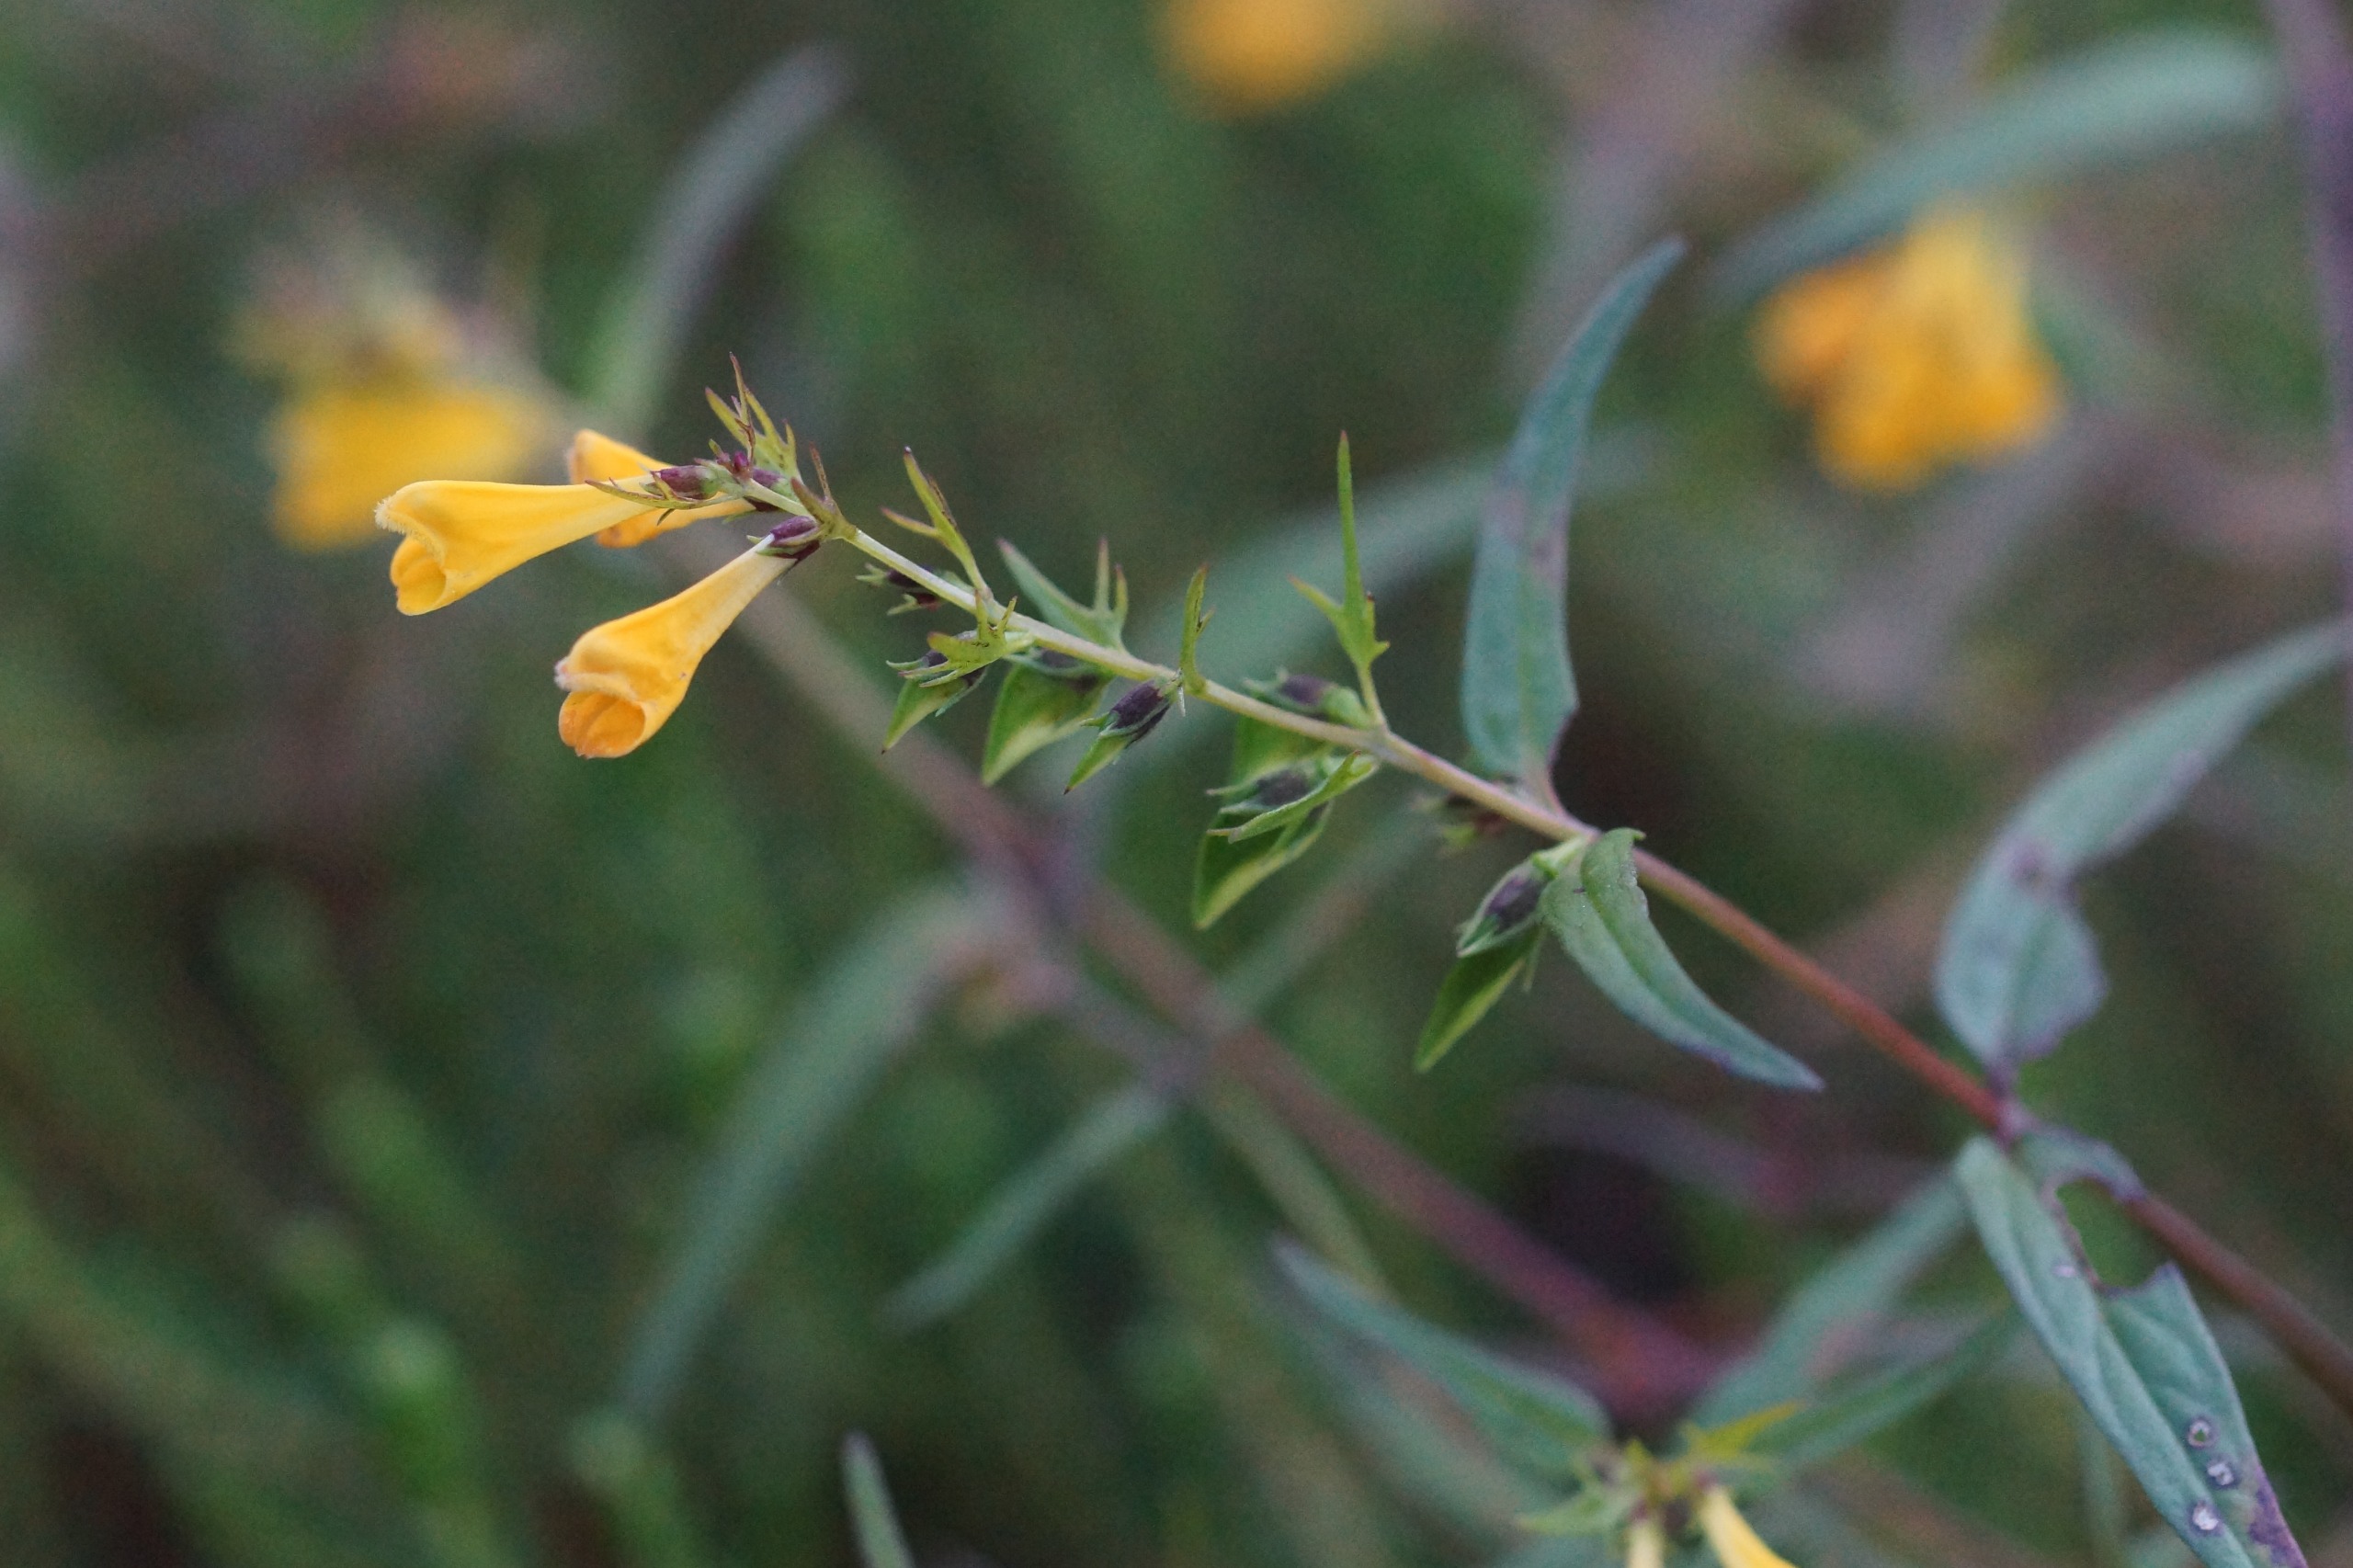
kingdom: Plantae
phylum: Tracheophyta
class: Magnoliopsida
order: Lamiales
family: Orobanchaceae
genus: Melampyrum
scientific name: Melampyrum pratense
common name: Almindelig kohvede
